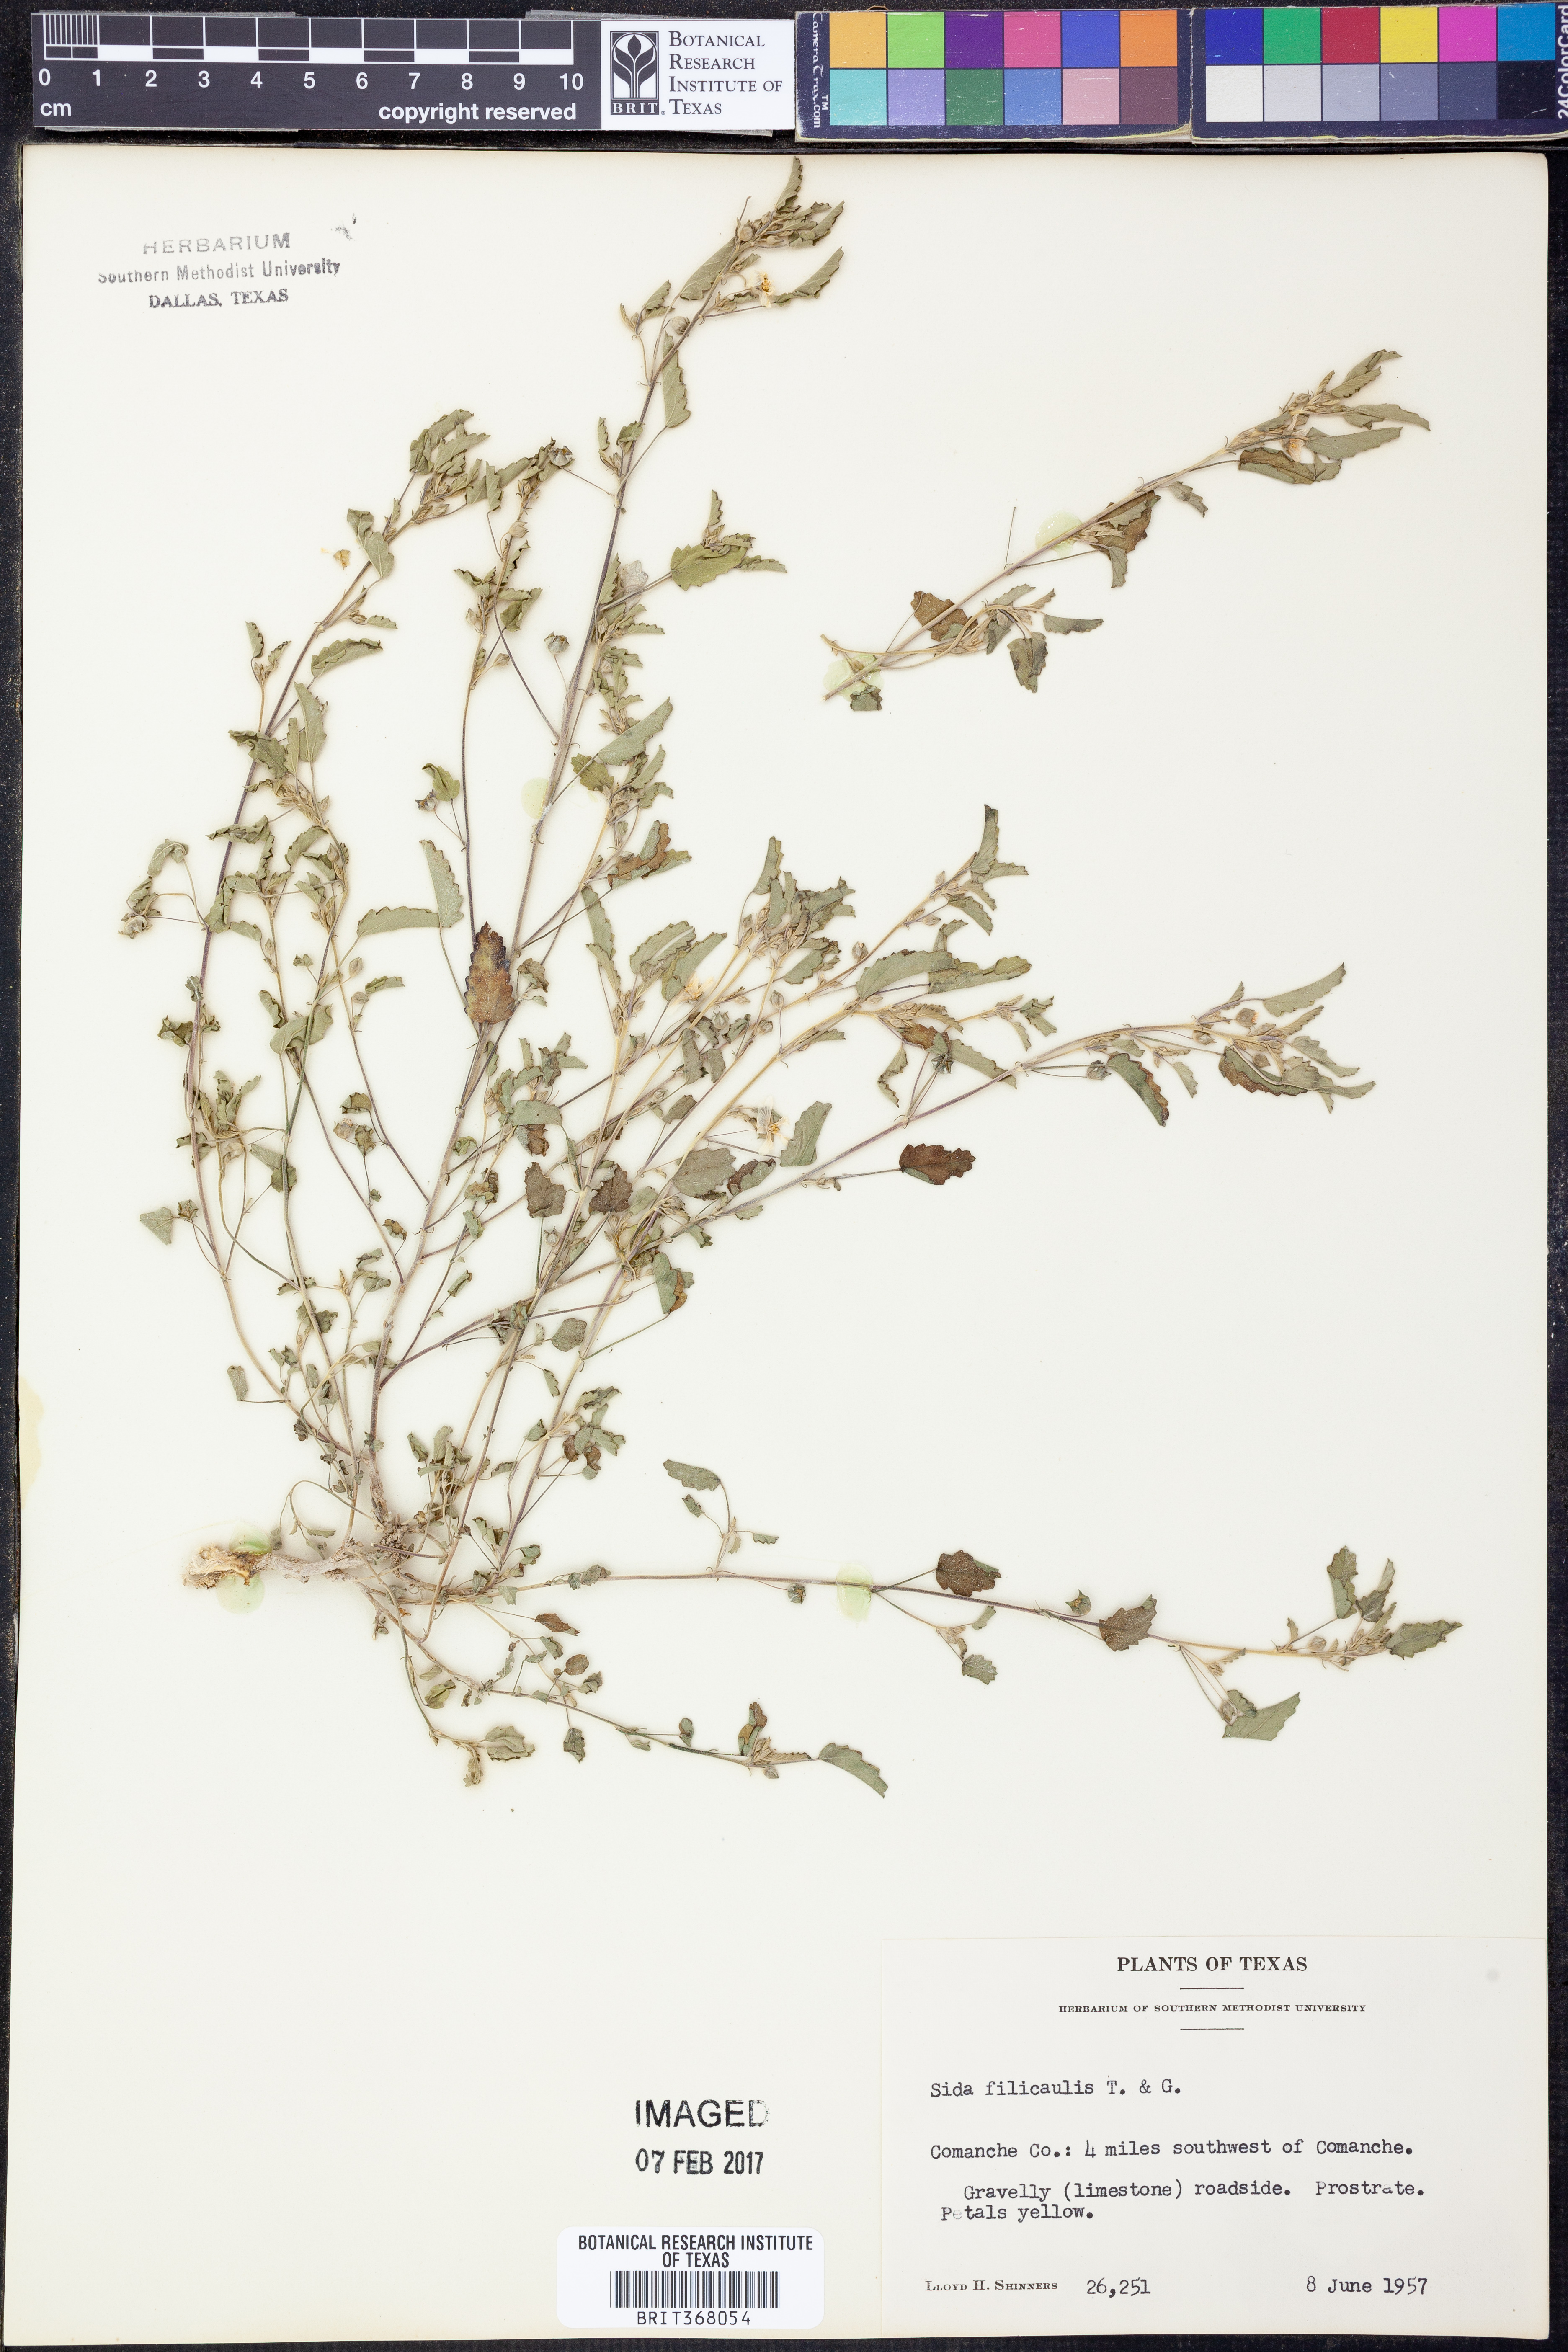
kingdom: Plantae
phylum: Tracheophyta
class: Magnoliopsida
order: Malvales
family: Malvaceae
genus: Sida
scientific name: Sida abutilifolia
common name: Spreading fanpetals
